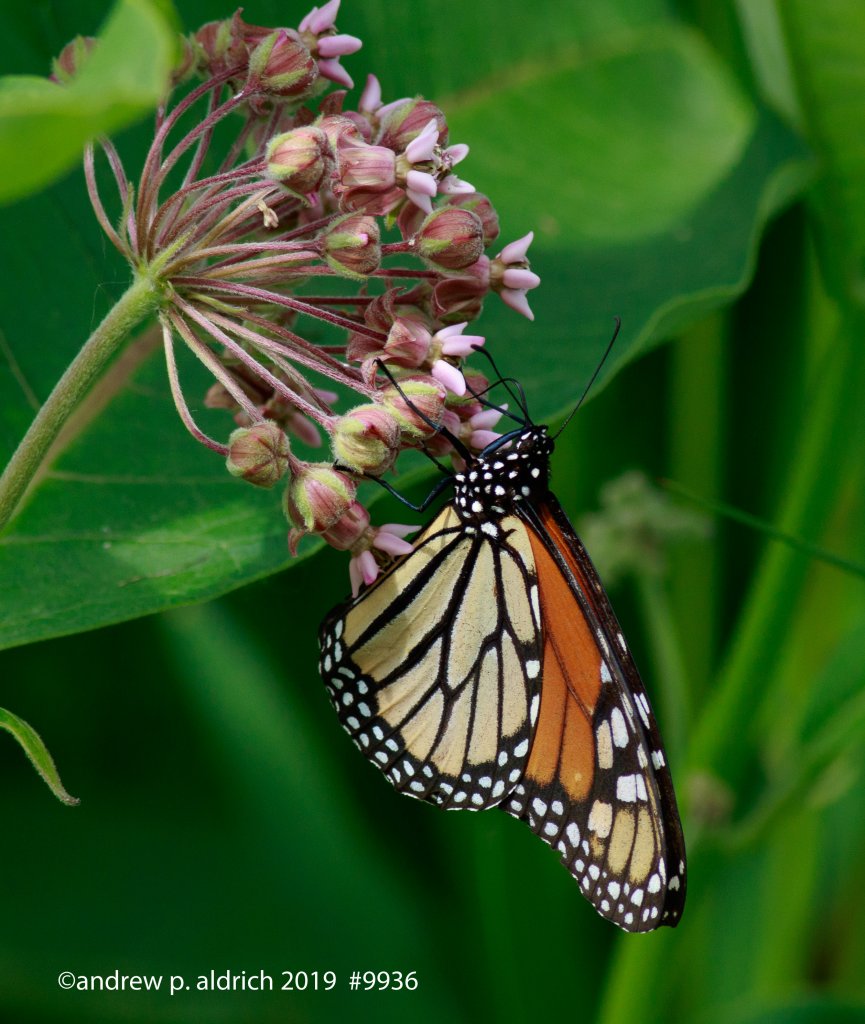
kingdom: Animalia
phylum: Arthropoda
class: Insecta
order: Lepidoptera
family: Nymphalidae
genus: Danaus
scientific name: Danaus plexippus
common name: Monarch
